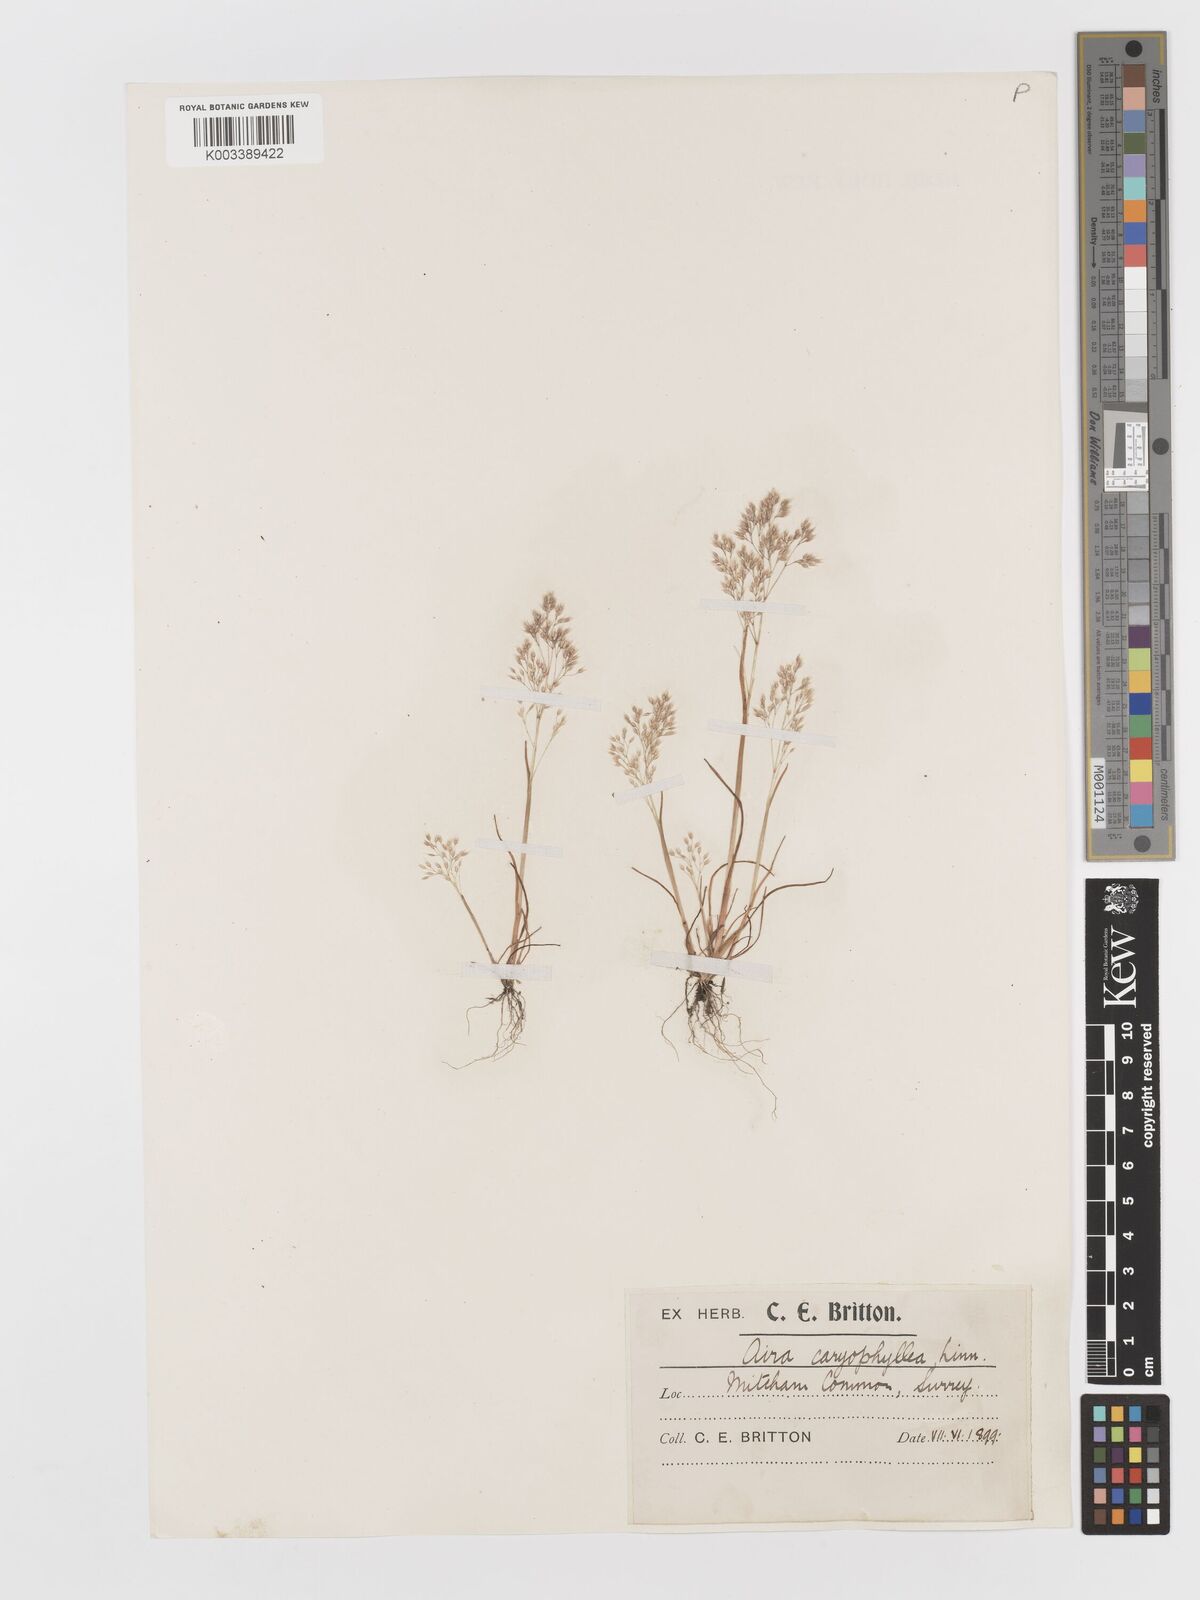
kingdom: Plantae
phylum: Tracheophyta
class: Liliopsida
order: Poales
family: Poaceae
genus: Aira
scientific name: Aira caryophyllea
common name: Silver hairgrass
